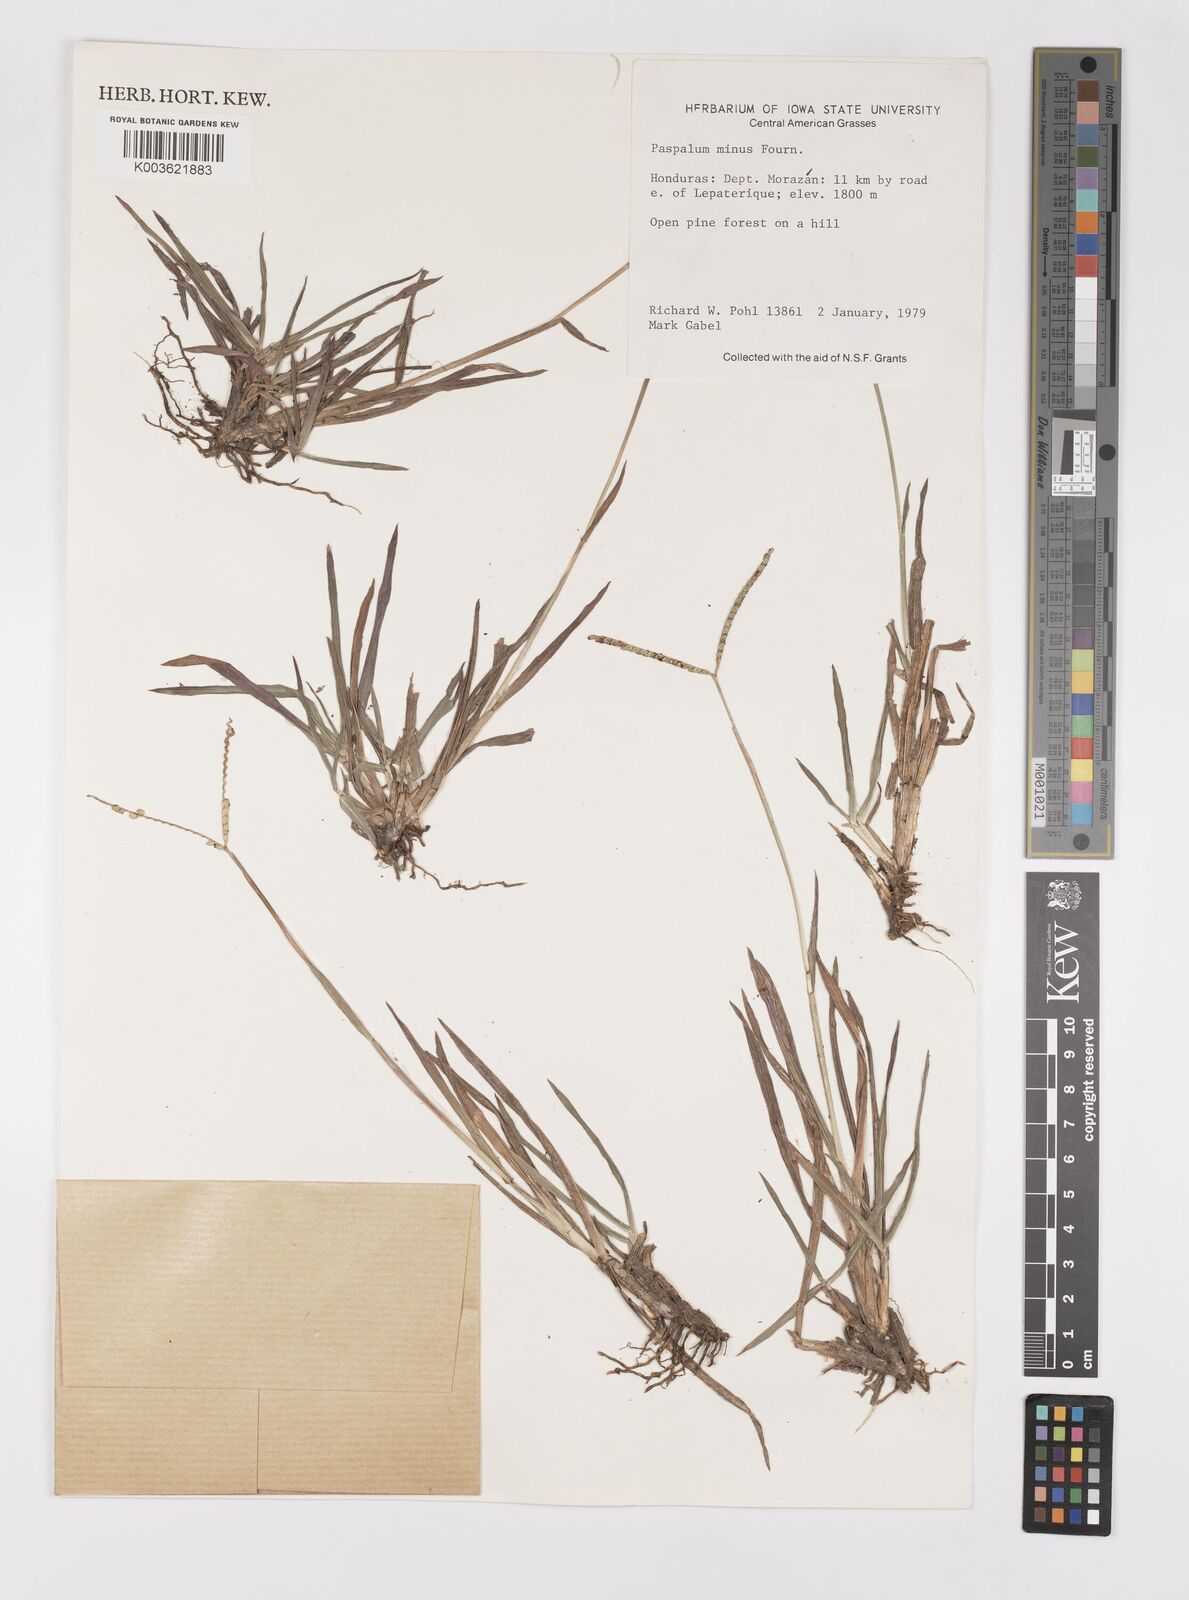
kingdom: Plantae
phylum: Tracheophyta
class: Liliopsida
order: Poales
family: Poaceae
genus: Paspalum
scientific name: Paspalum minus
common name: Matted paspalum
